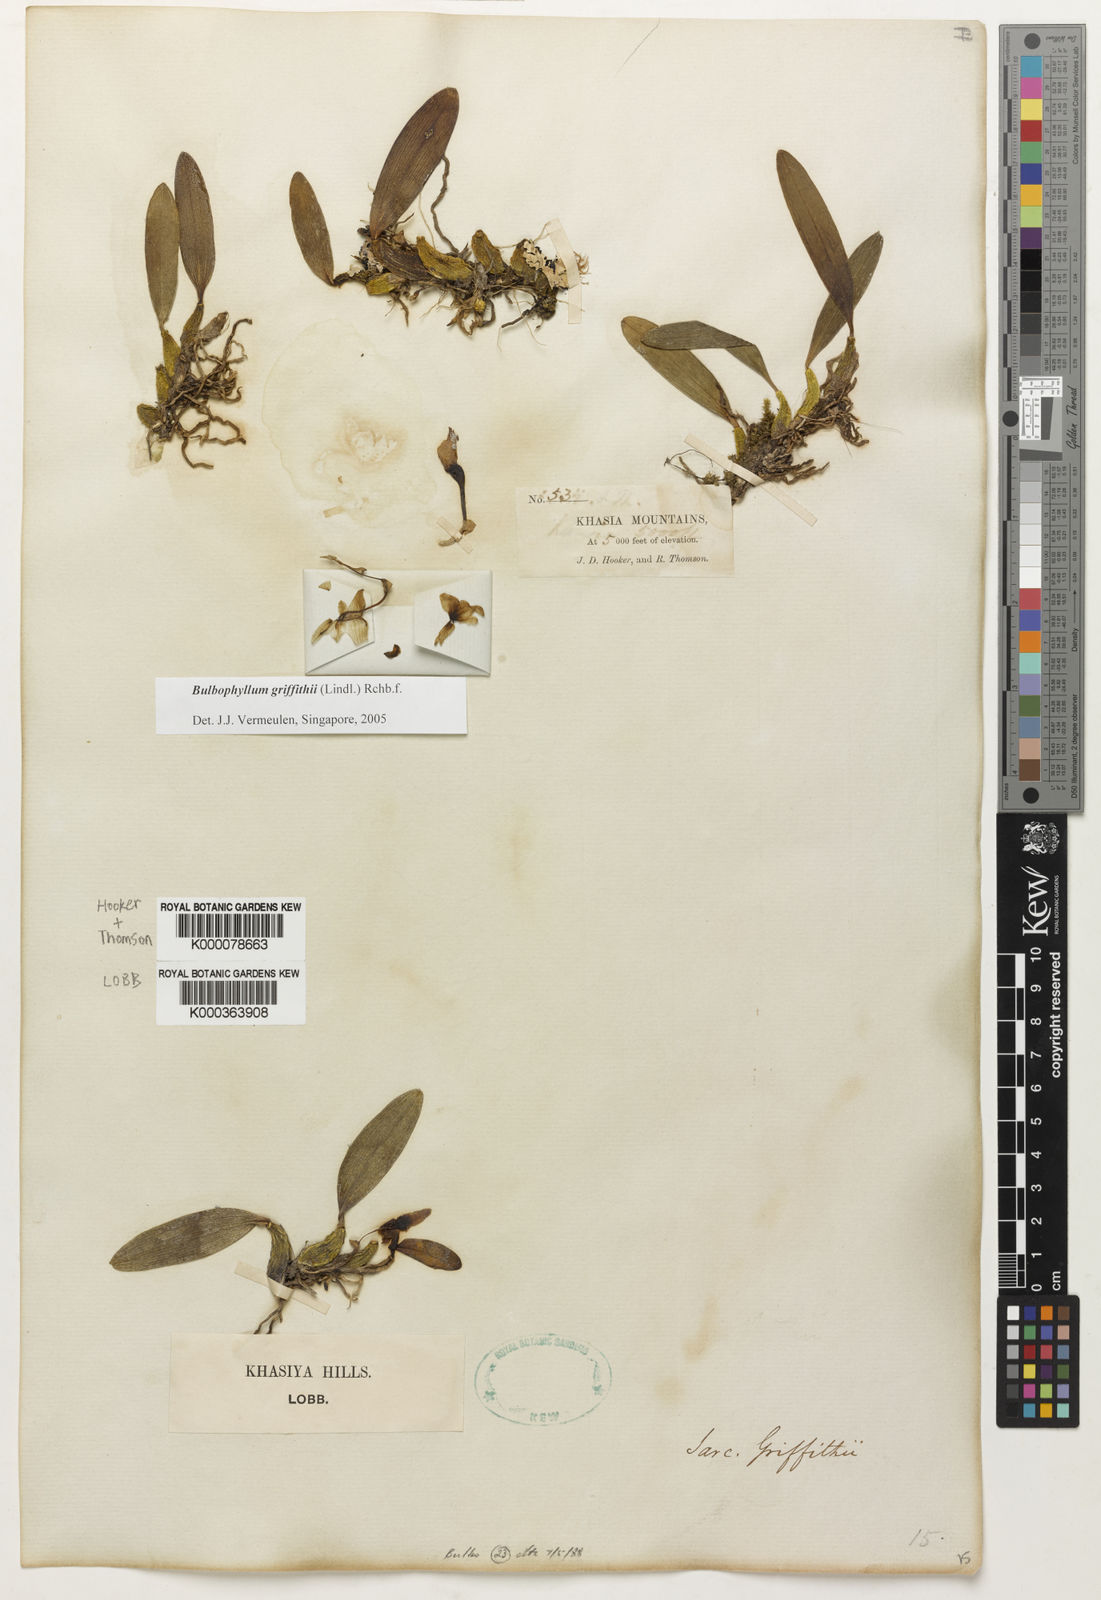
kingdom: Plantae
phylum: Tracheophyta
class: Liliopsida
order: Asparagales
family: Orchidaceae
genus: Bulbophyllum
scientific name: Bulbophyllum griffithii
